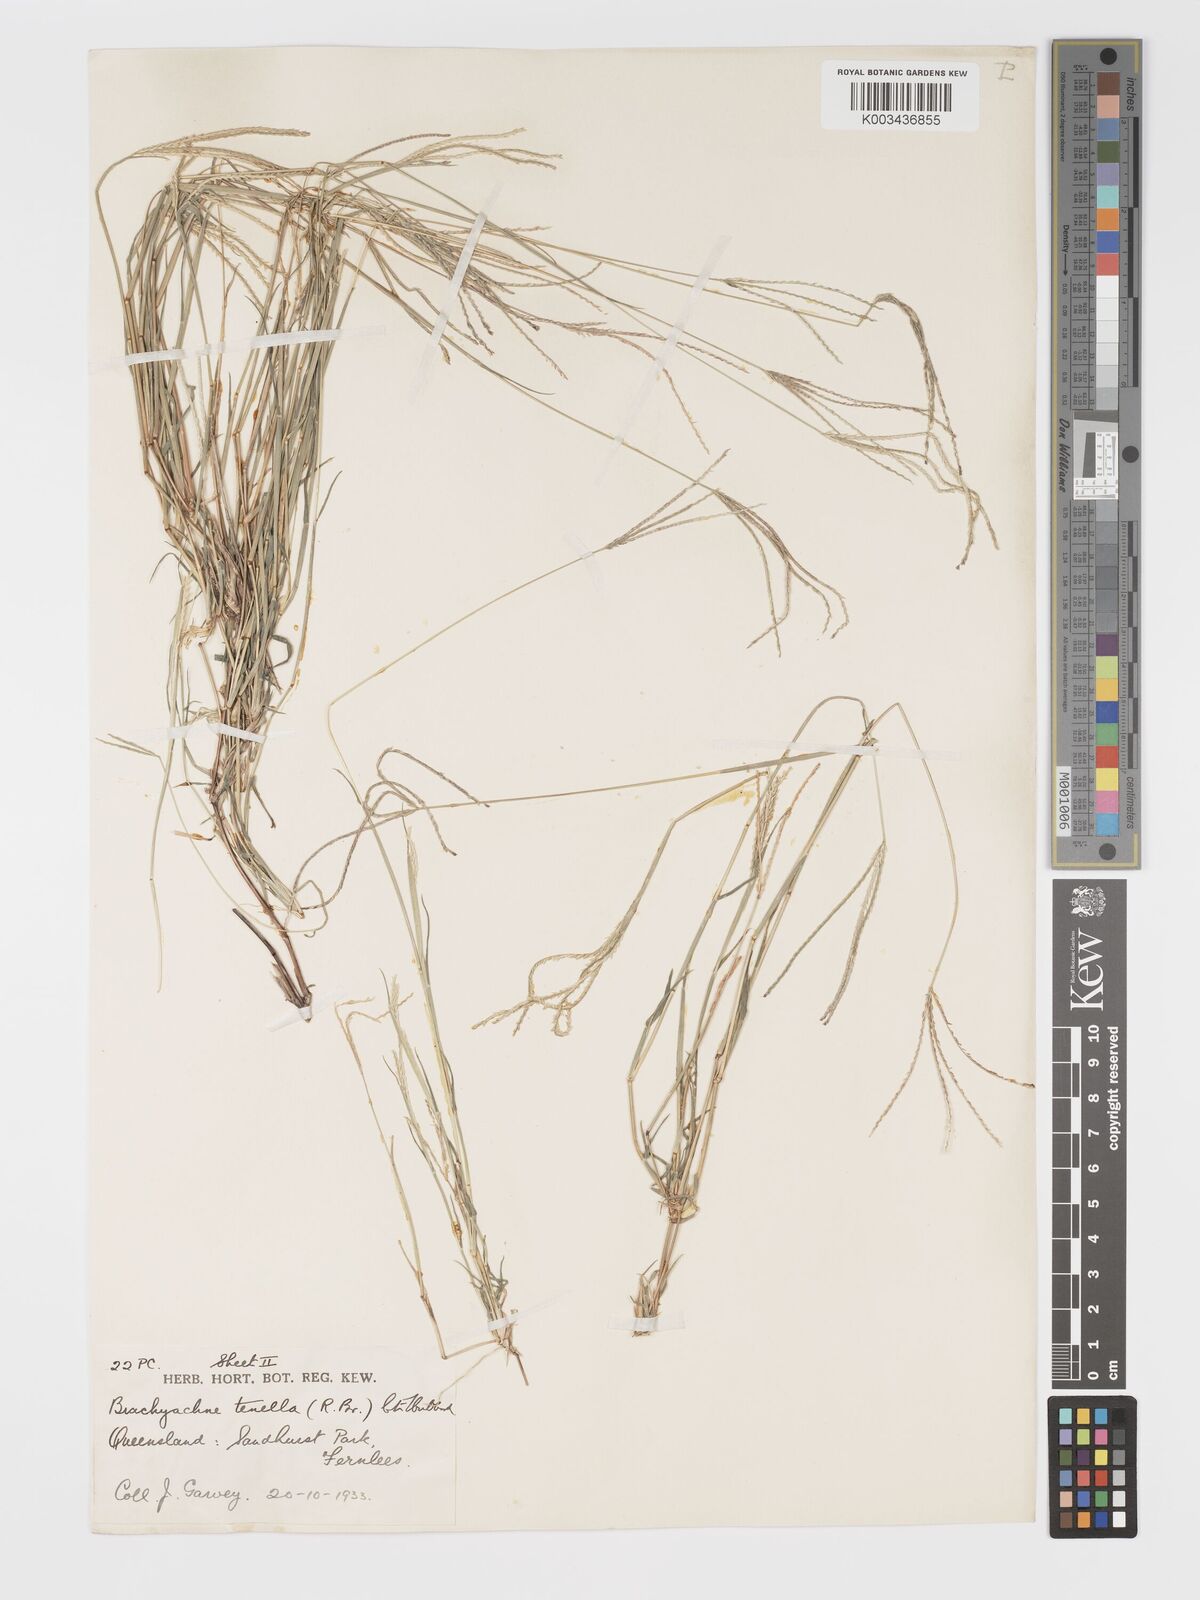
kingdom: Plantae
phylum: Tracheophyta
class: Liliopsida
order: Poales
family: Poaceae
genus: Cynodon
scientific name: Cynodon tenellus
